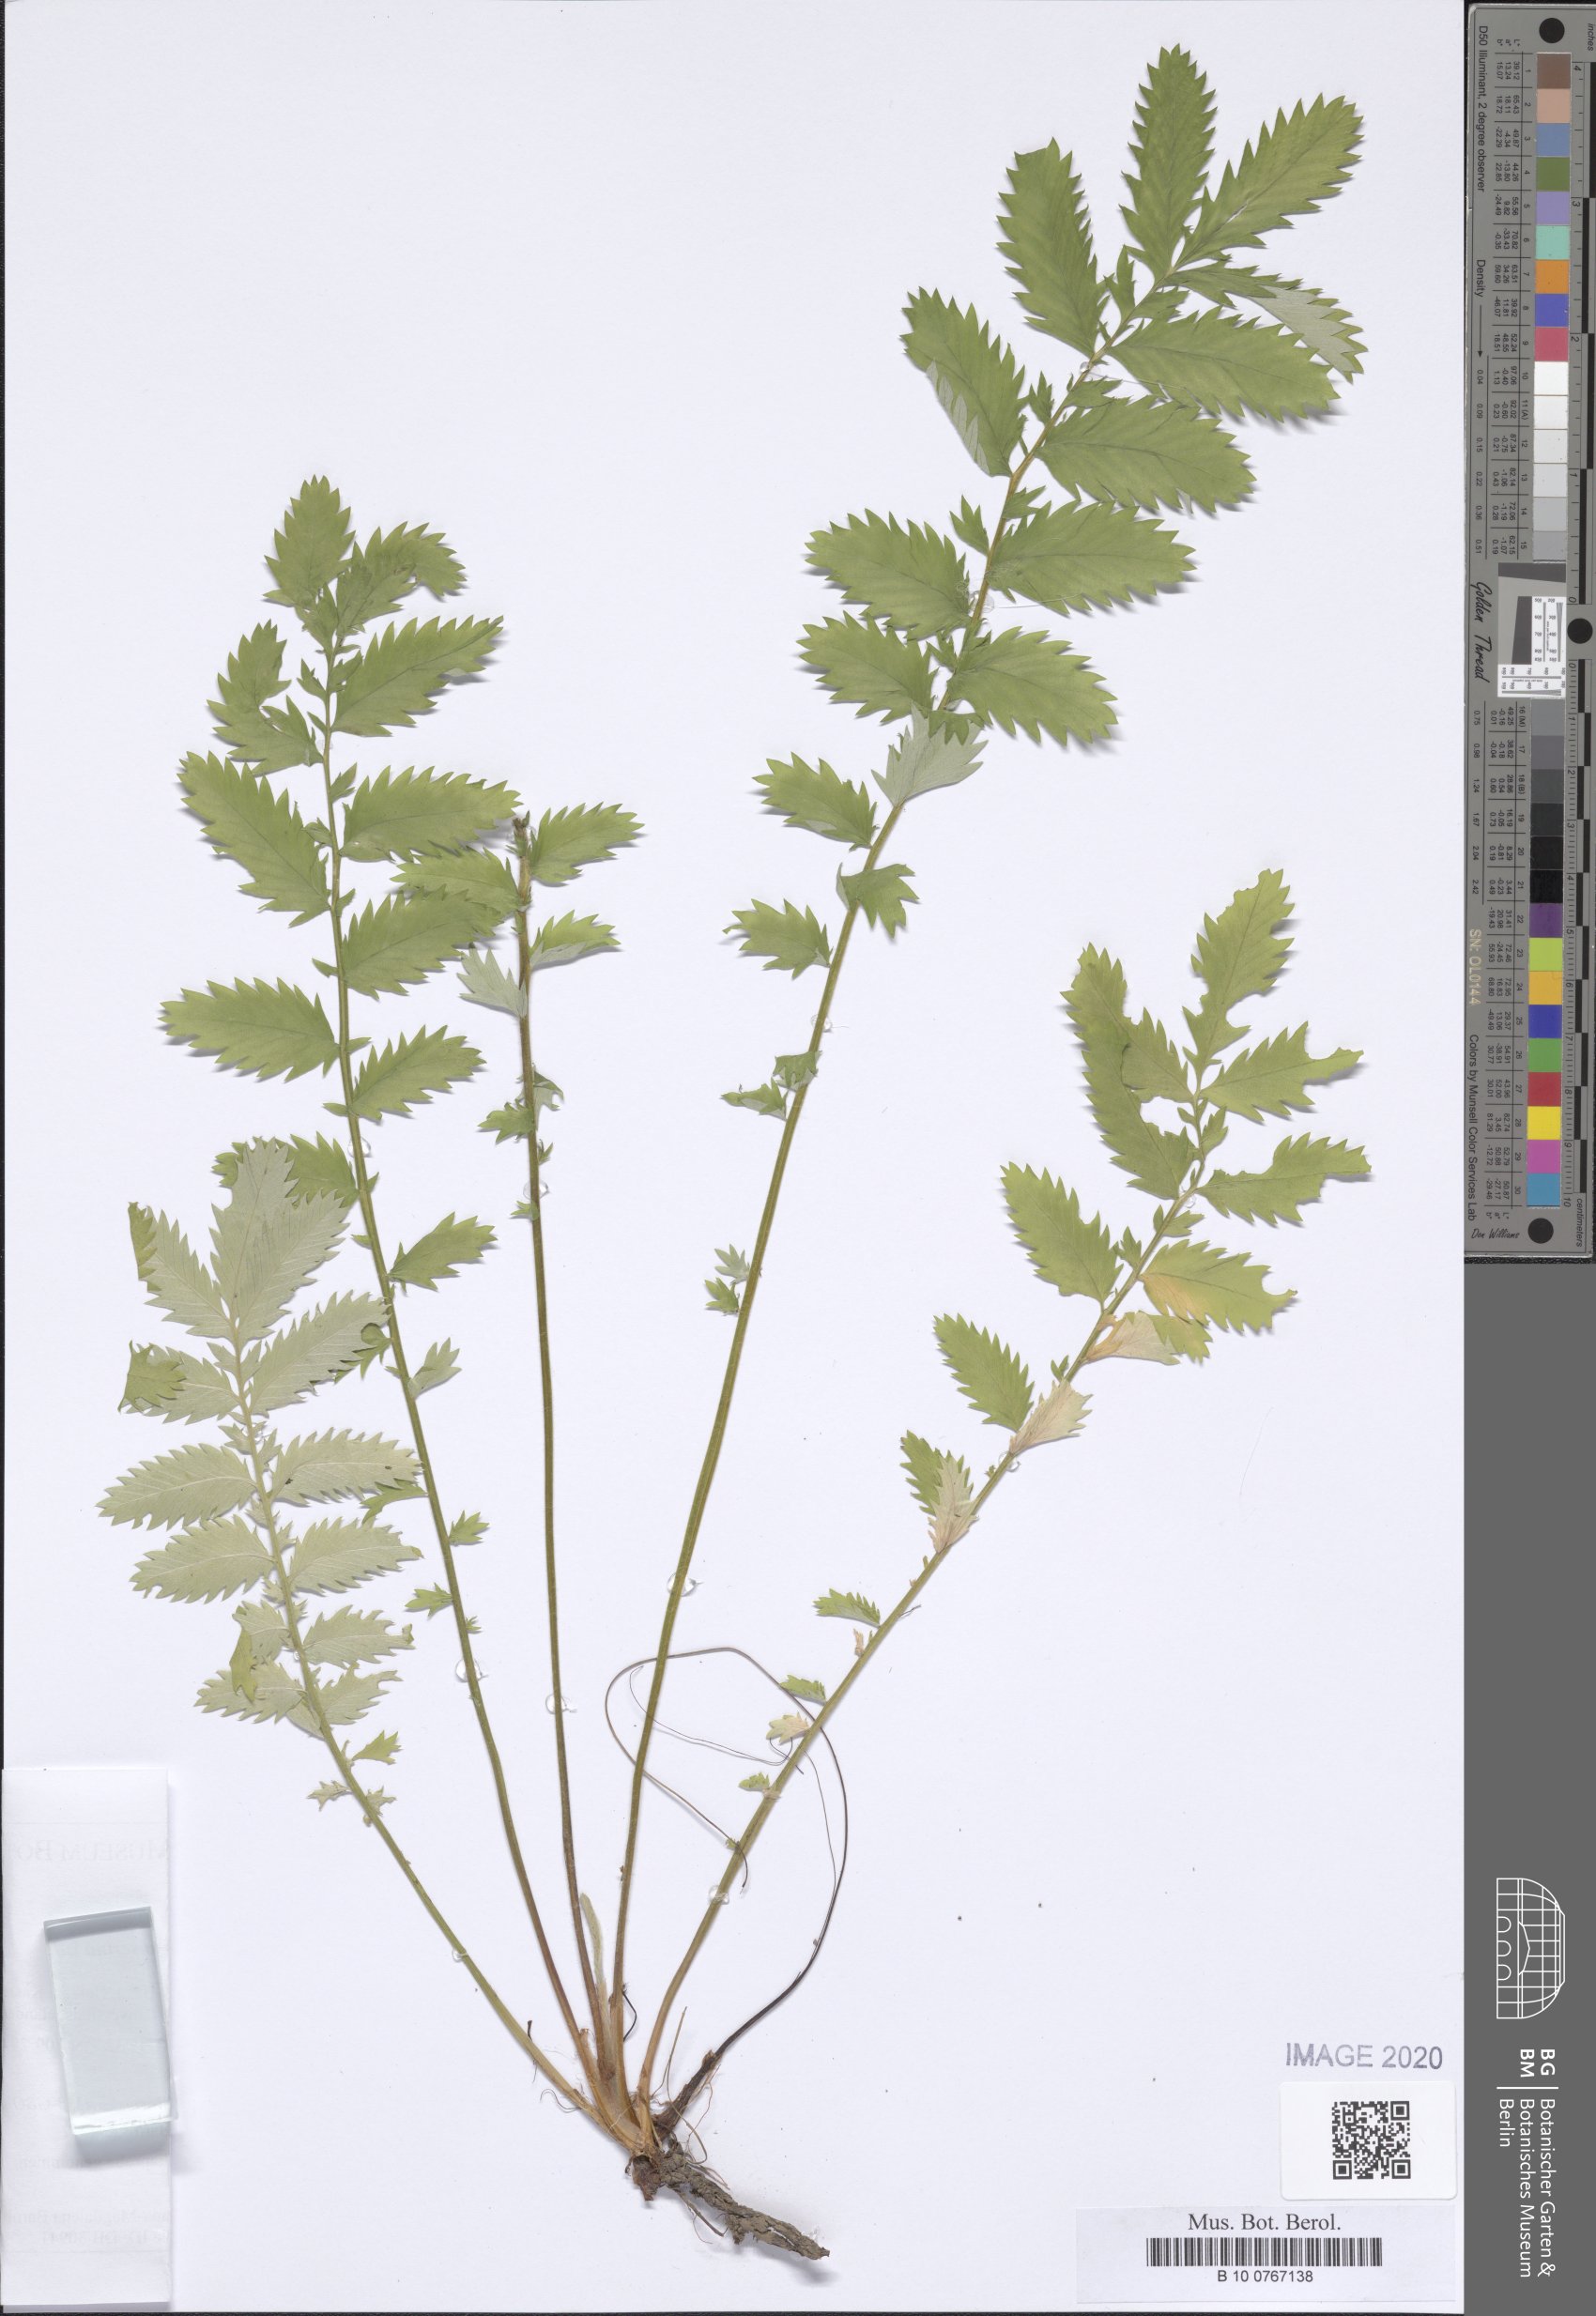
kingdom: Plantae
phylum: Tracheophyta
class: Magnoliopsida
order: Rosales
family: Rosaceae
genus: Argentina
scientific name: Argentina anserina
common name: Common silverweed
